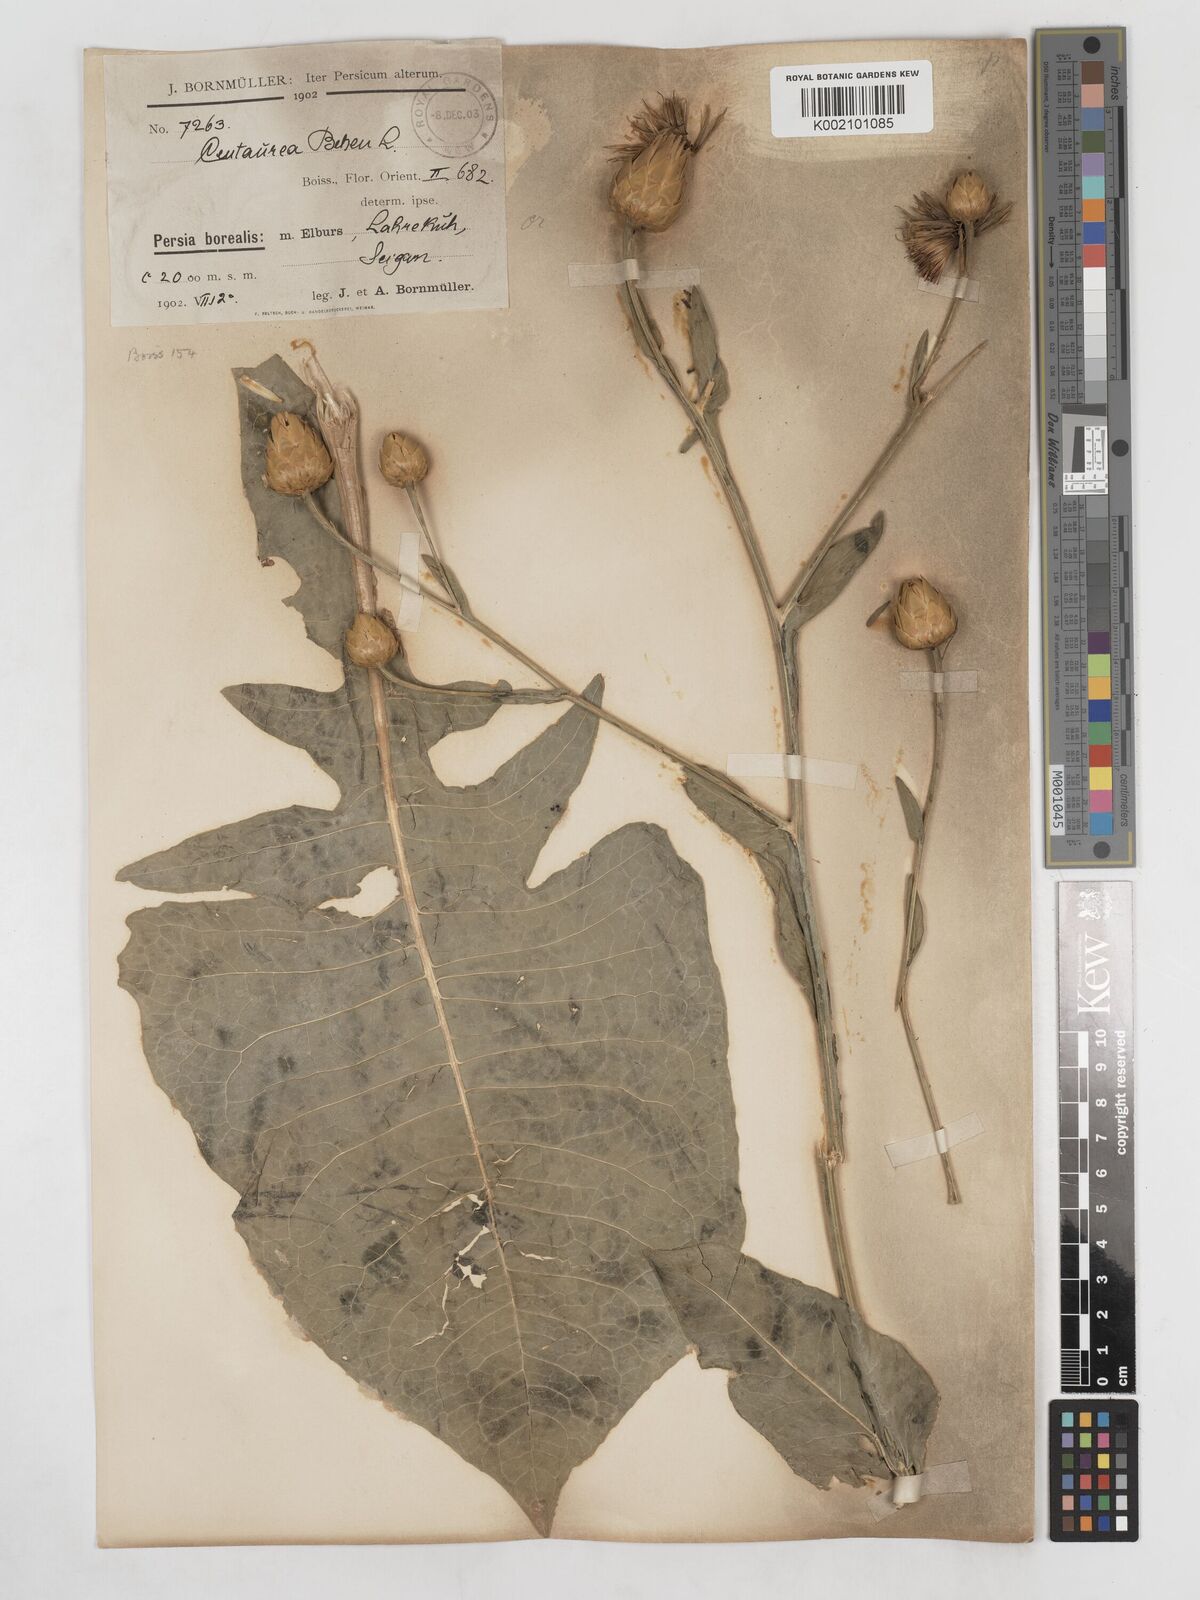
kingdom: Plantae
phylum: Tracheophyta
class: Magnoliopsida
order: Asterales
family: Asteraceae
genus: Centaurea
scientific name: Centaurea behen
